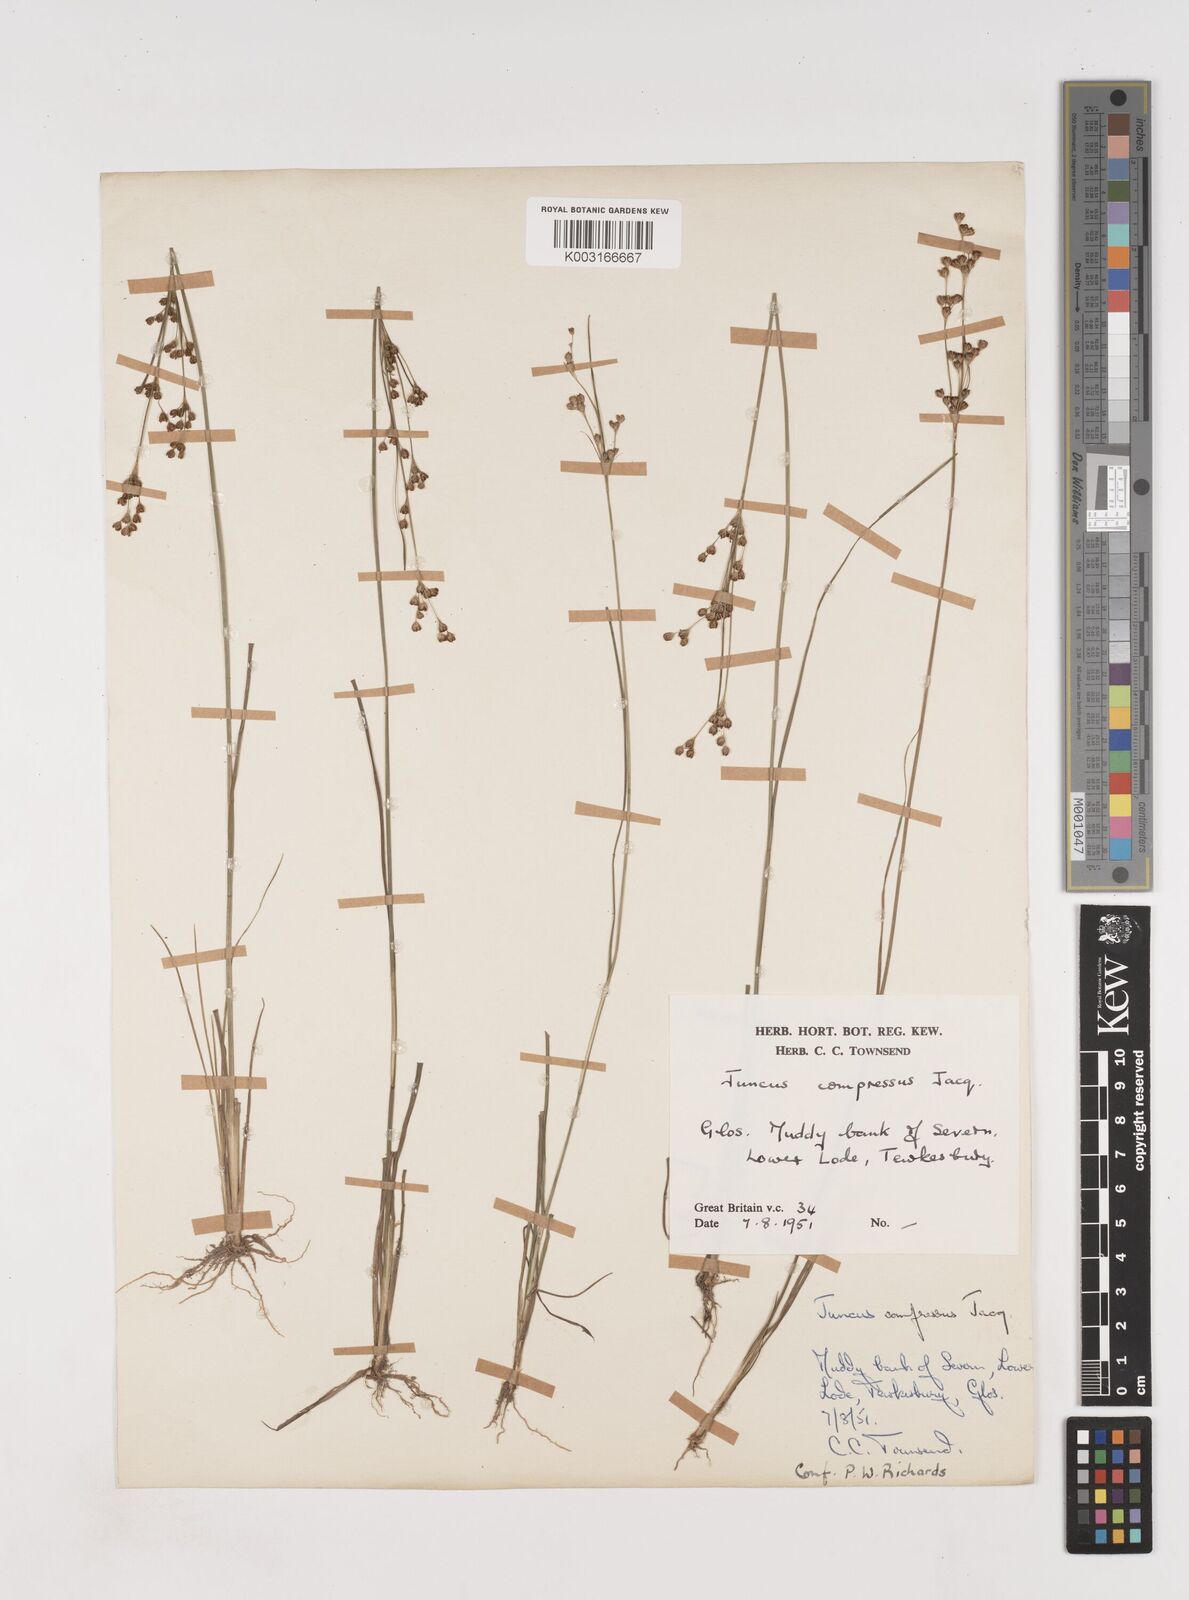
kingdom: Plantae
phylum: Tracheophyta
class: Liliopsida
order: Poales
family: Juncaceae
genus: Juncus
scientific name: Juncus compressus
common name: Round-fruited rush
